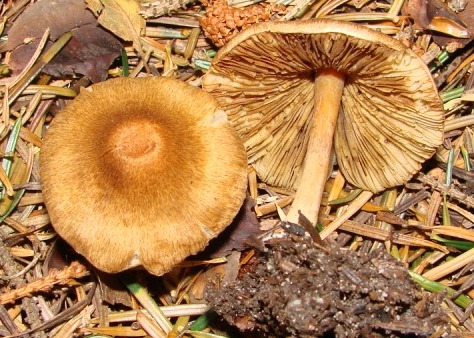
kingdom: Fungi
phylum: Basidiomycota
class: Agaricomycetes
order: Agaricales
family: Inocybaceae
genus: Inocybe
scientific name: Inocybe langei
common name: Langes trævlhat
